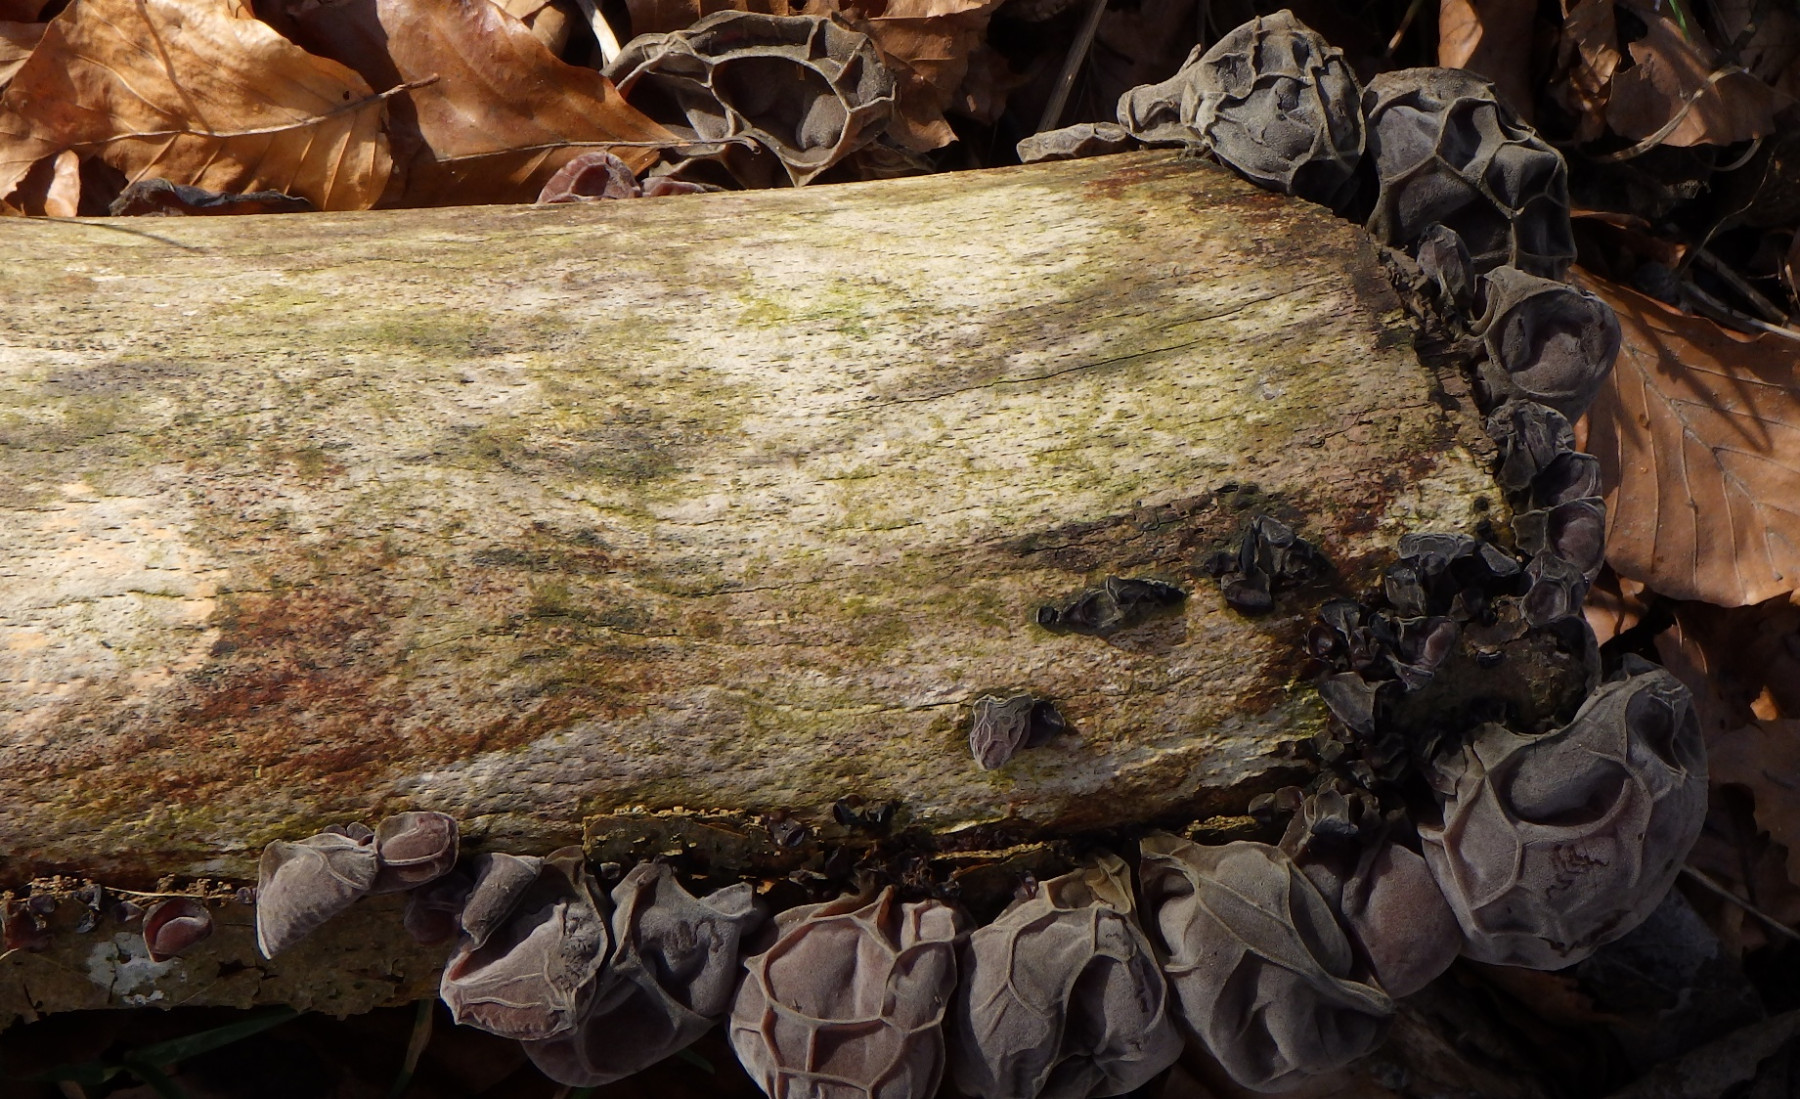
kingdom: Fungi
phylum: Basidiomycota
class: Agaricomycetes
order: Auriculariales
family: Auriculariaceae
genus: Auricularia
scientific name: Auricularia auricula-judae
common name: almindelig judasøre
